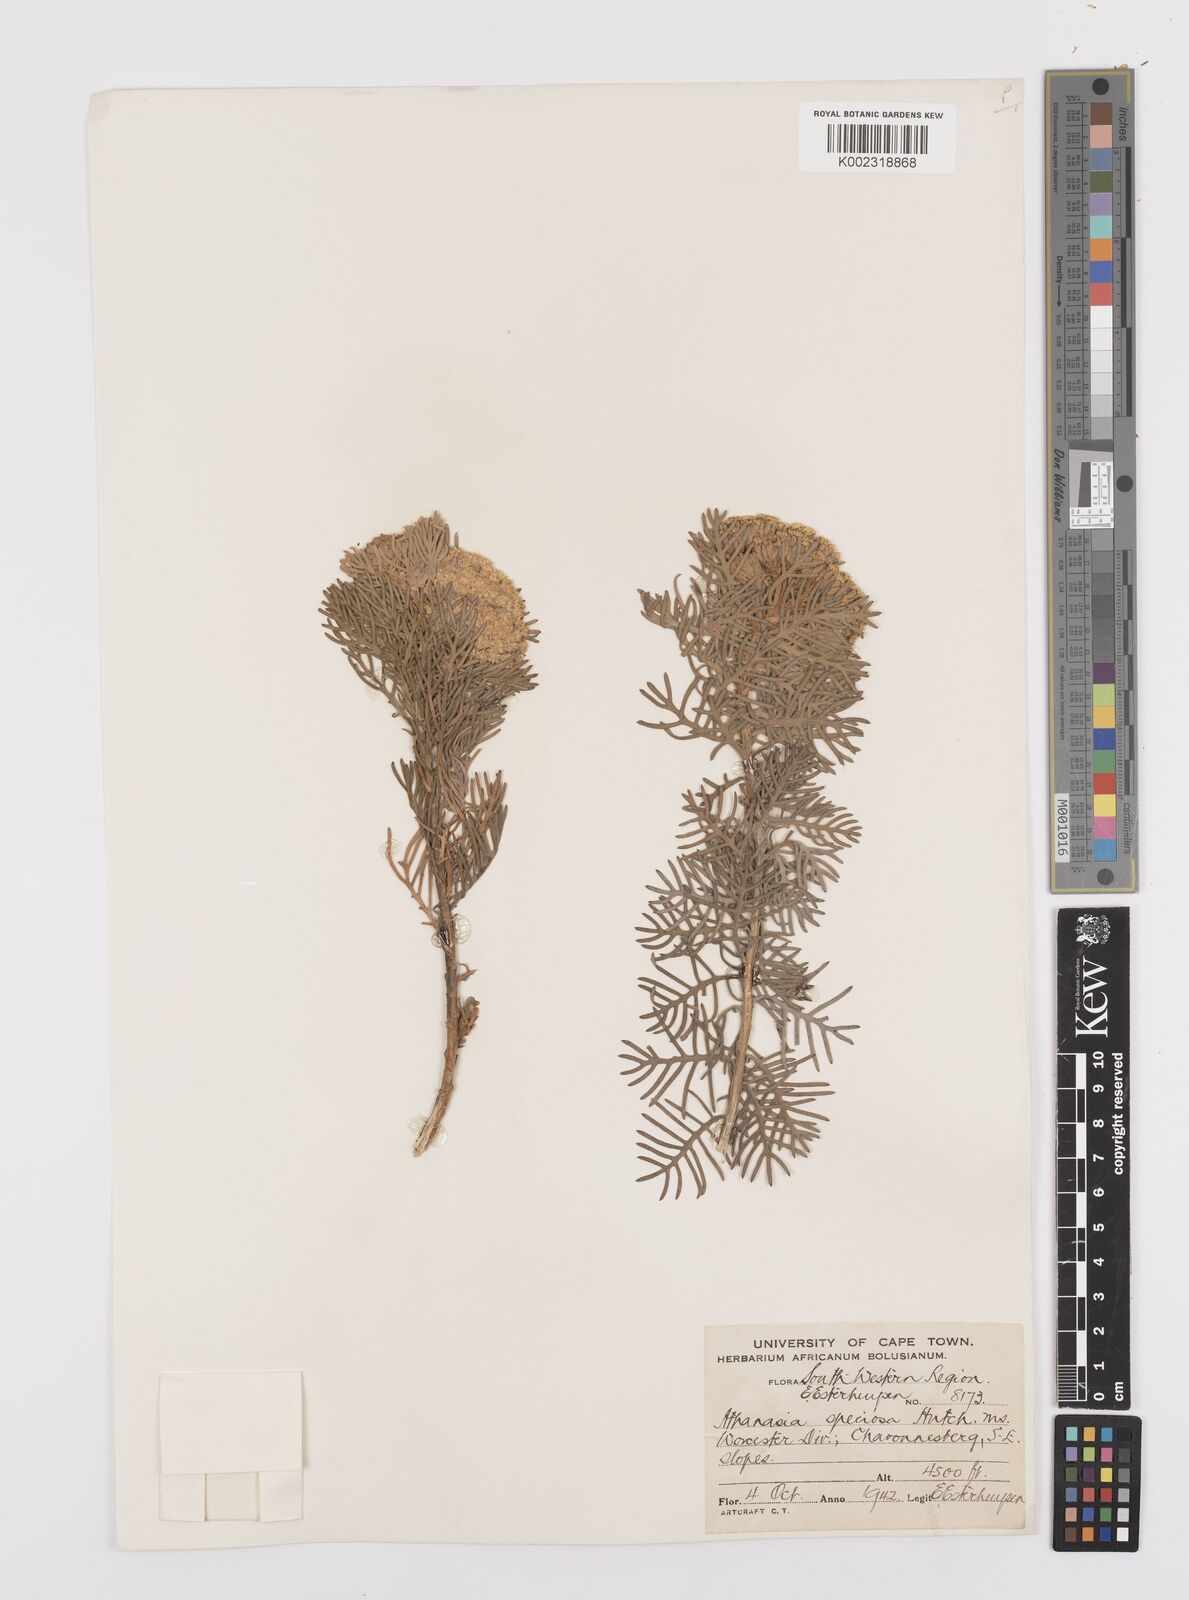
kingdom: Plantae
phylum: Tracheophyta
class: Magnoliopsida
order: Asterales
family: Asteraceae
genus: Hymenolepis
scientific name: Hymenolepis speciosa
